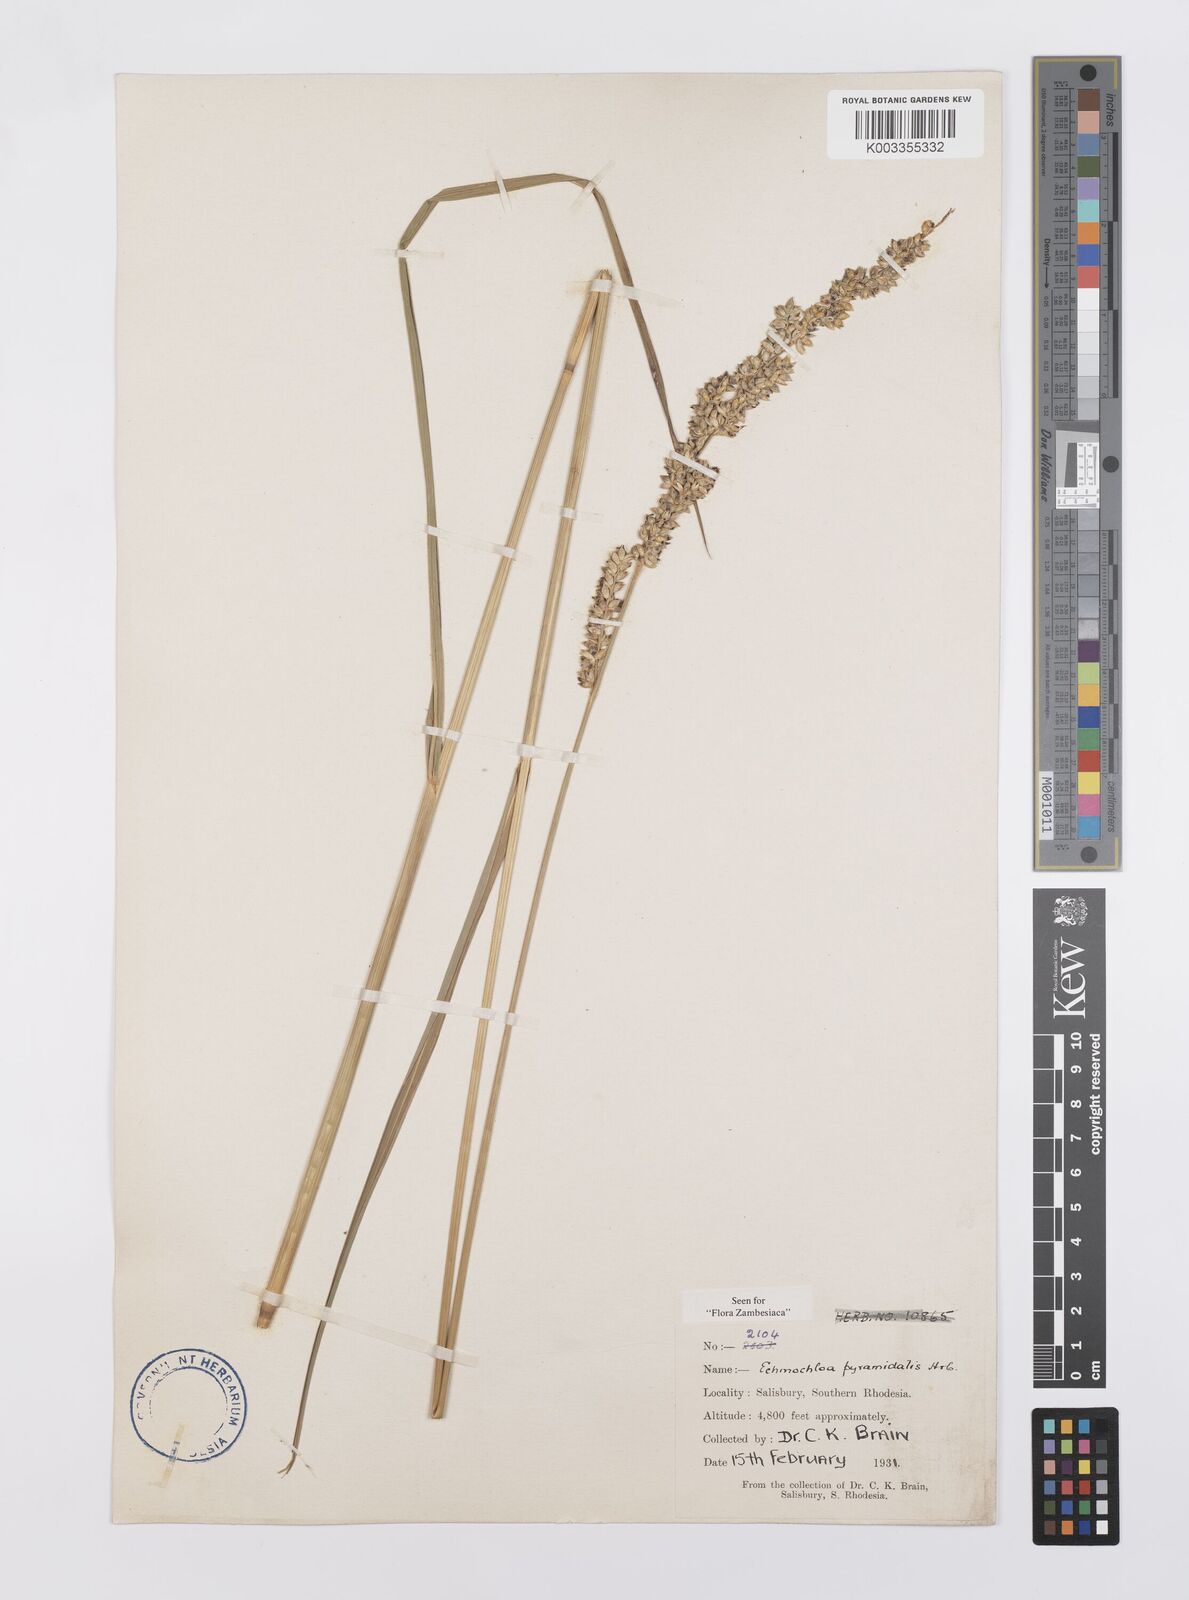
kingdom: Plantae
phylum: Tracheophyta
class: Liliopsida
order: Poales
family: Poaceae
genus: Echinochloa
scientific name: Echinochloa pyramidalis
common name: Antelope grass
